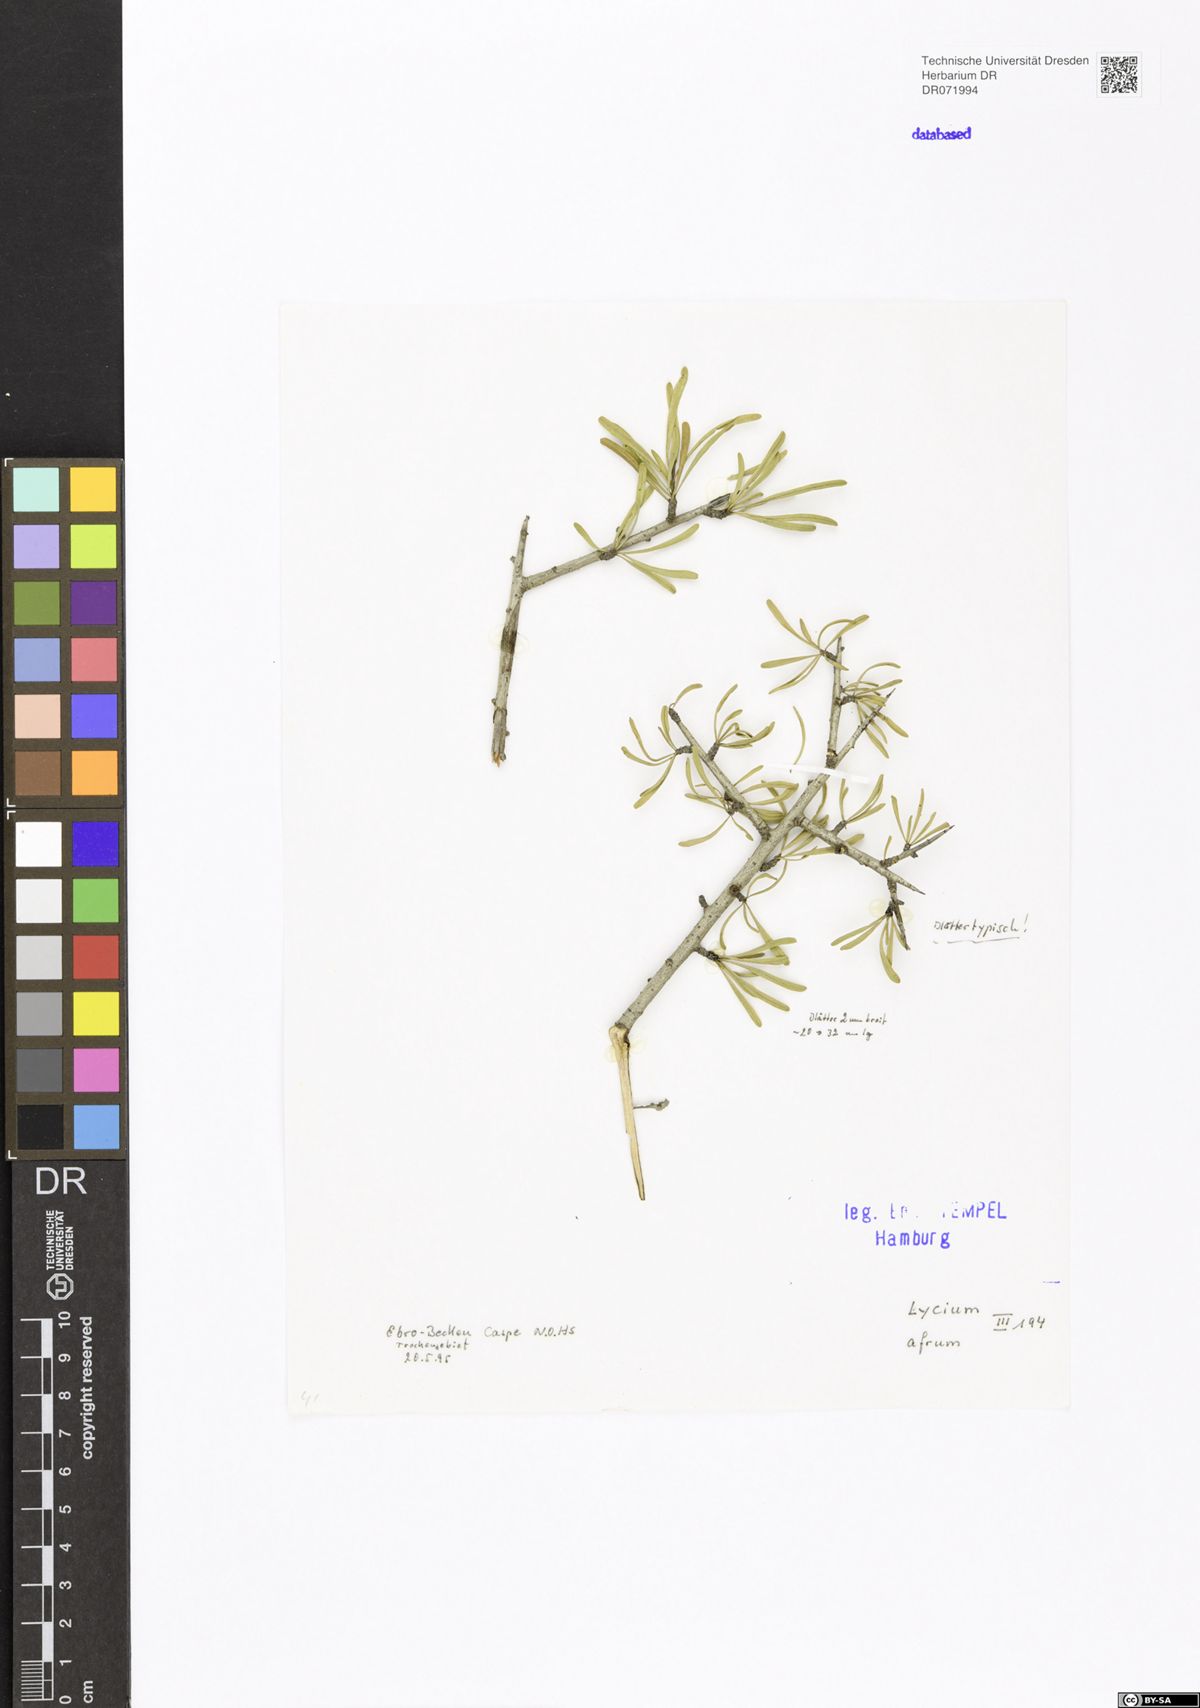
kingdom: Plantae
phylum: Tracheophyta
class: Magnoliopsida
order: Solanales
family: Solanaceae
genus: Lycium
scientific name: Lycium afrum
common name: Kaffir boxthorn
